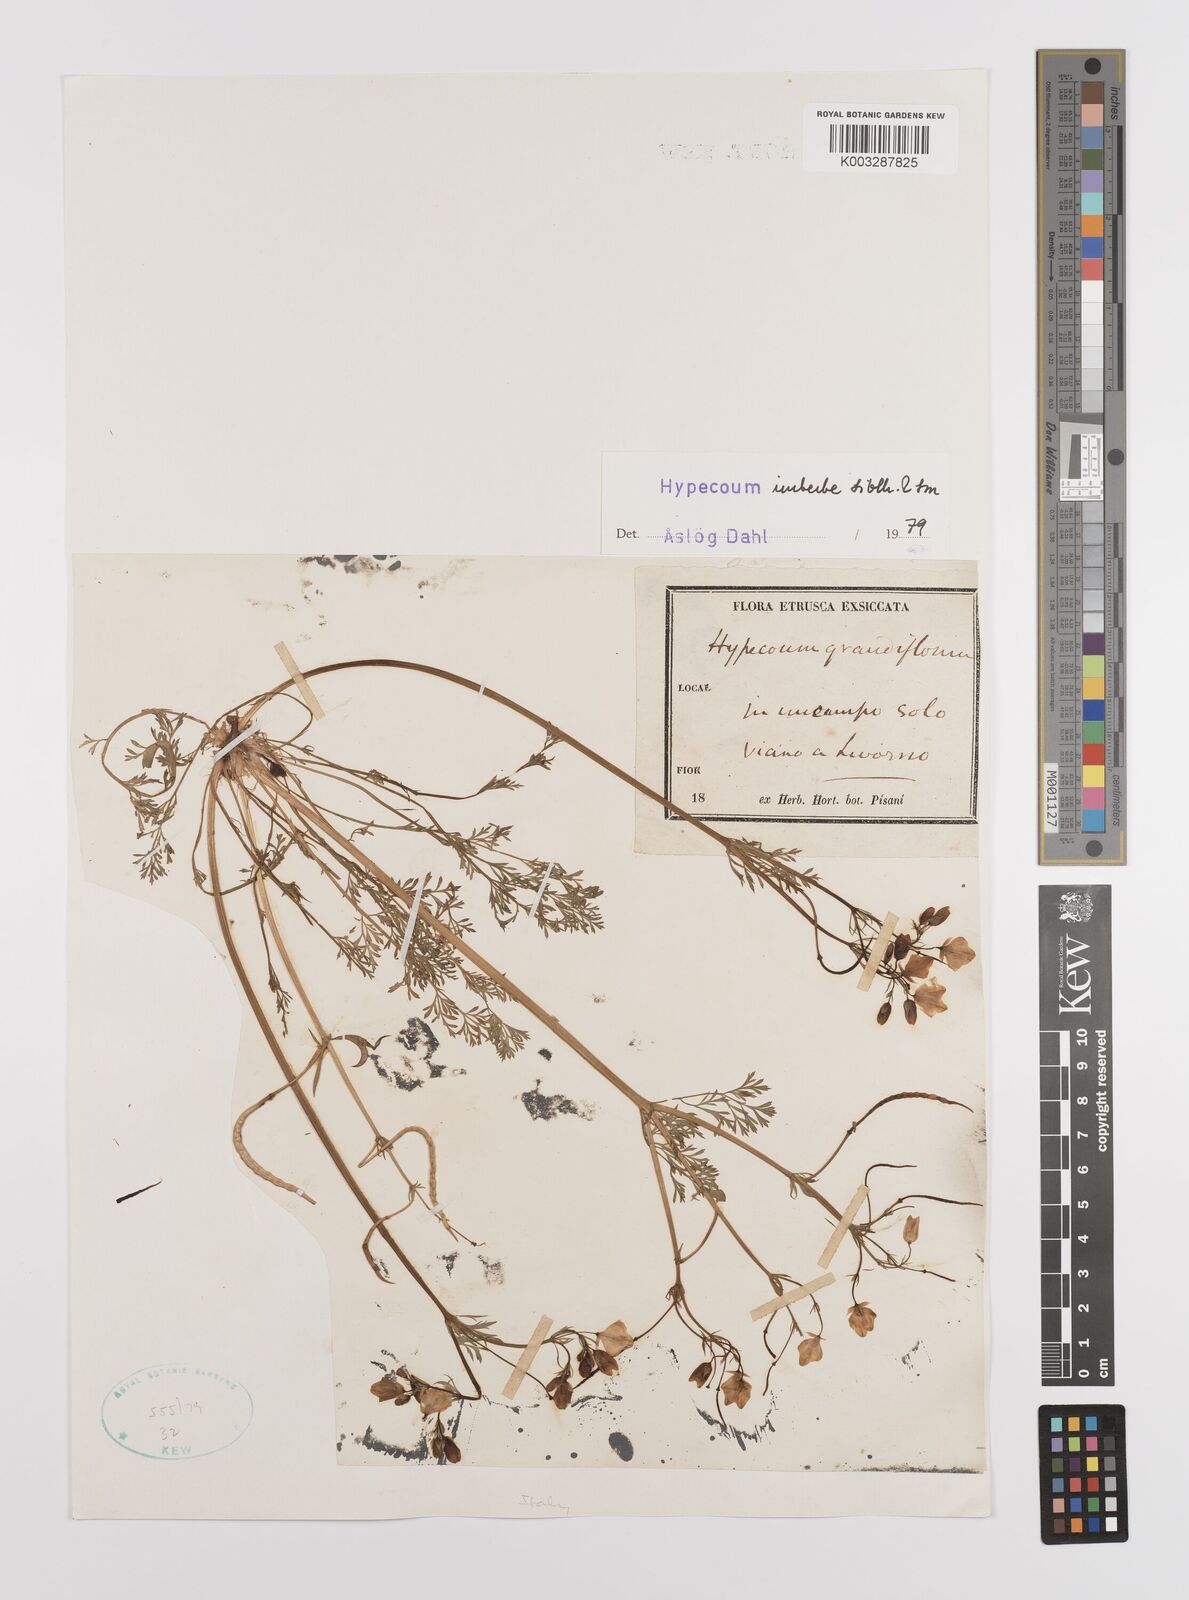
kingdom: Plantae
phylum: Tracheophyta
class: Magnoliopsida
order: Ranunculales
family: Papaveraceae
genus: Hypecoum
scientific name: Hypecoum imberbe
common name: Sicklefruit hypecoum
